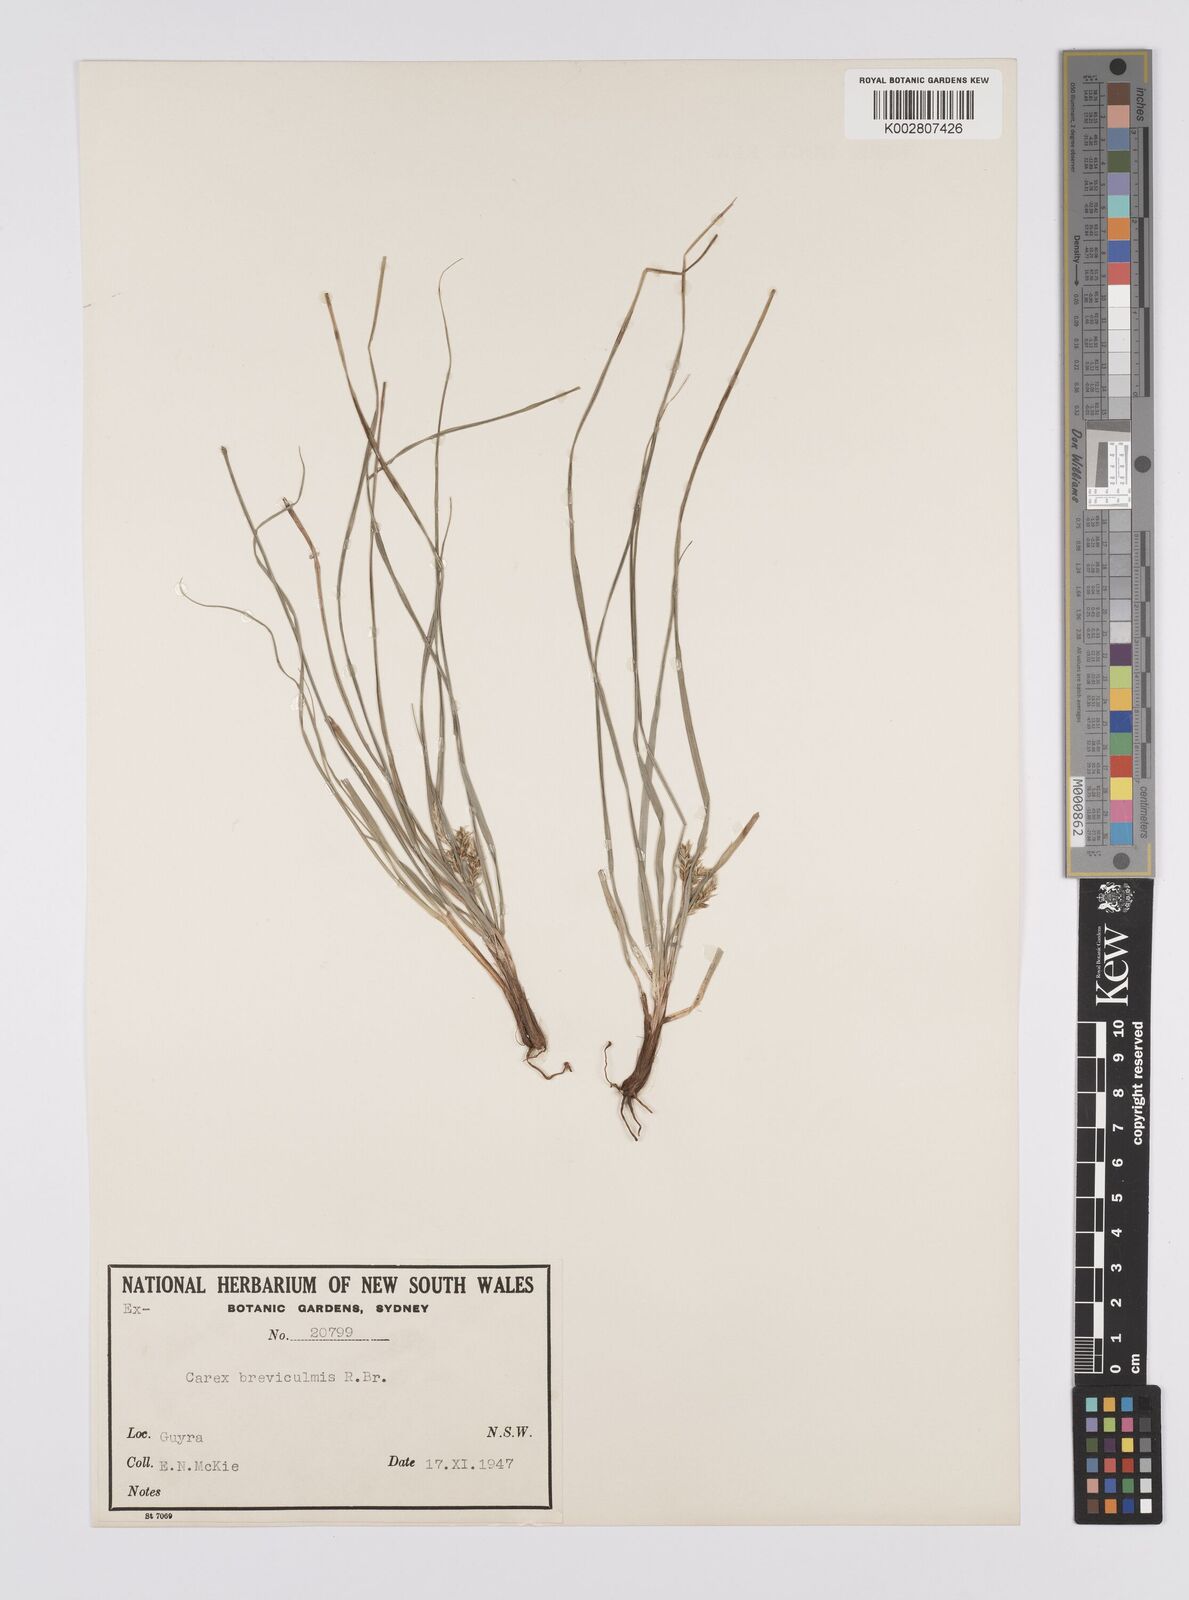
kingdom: Plantae
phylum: Tracheophyta
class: Liliopsida
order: Poales
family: Cyperaceae
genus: Carex
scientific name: Carex breviculmis
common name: Asian shortstem sedge
